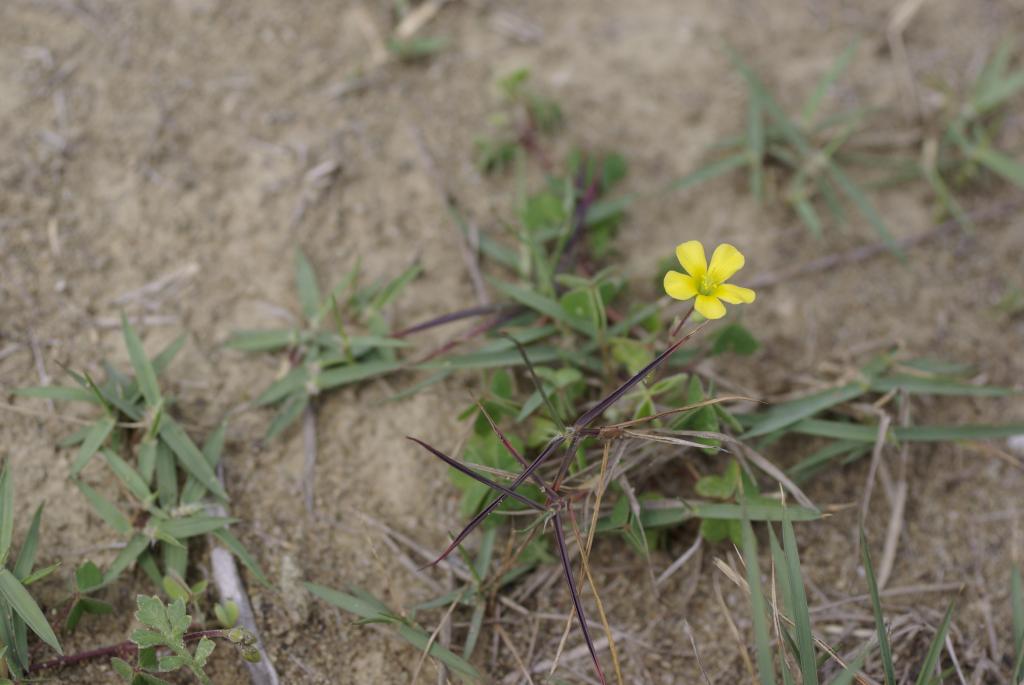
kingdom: Plantae
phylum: Tracheophyta
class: Magnoliopsida
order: Oxalidales
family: Oxalidaceae
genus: Oxalis
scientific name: Oxalis corniculata
